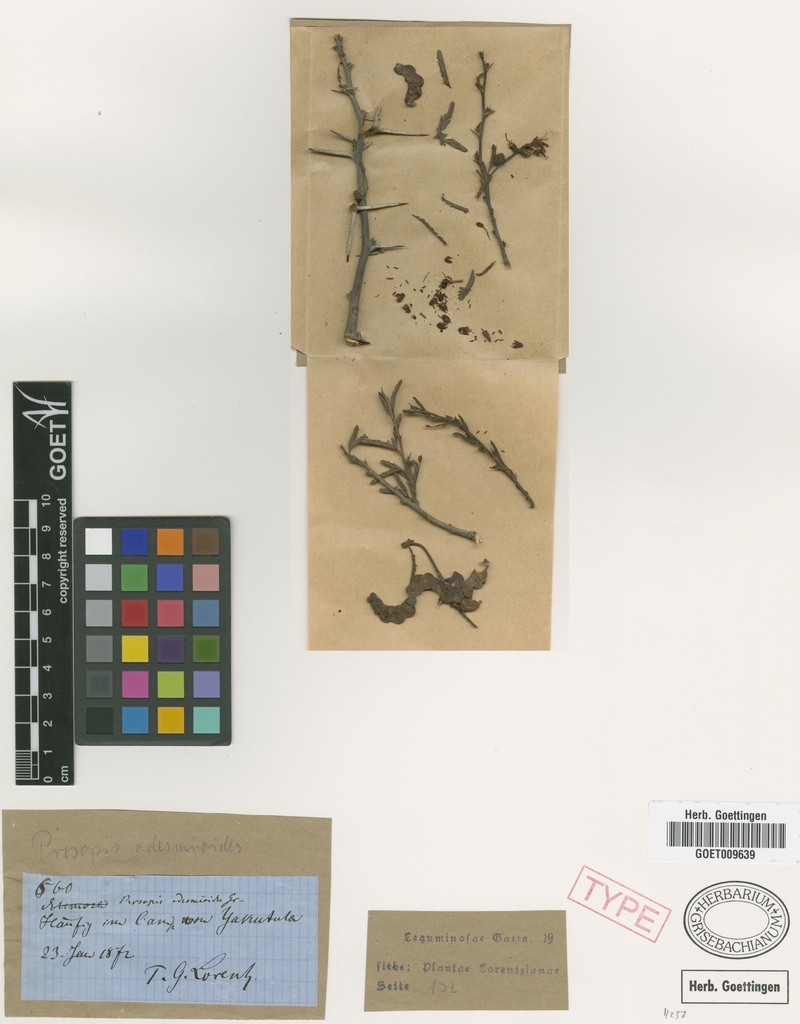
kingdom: Plantae
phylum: Tracheophyta
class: Magnoliopsida
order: Fabales
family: Fabaceae
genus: Prosopis
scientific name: Prosopis torquata
